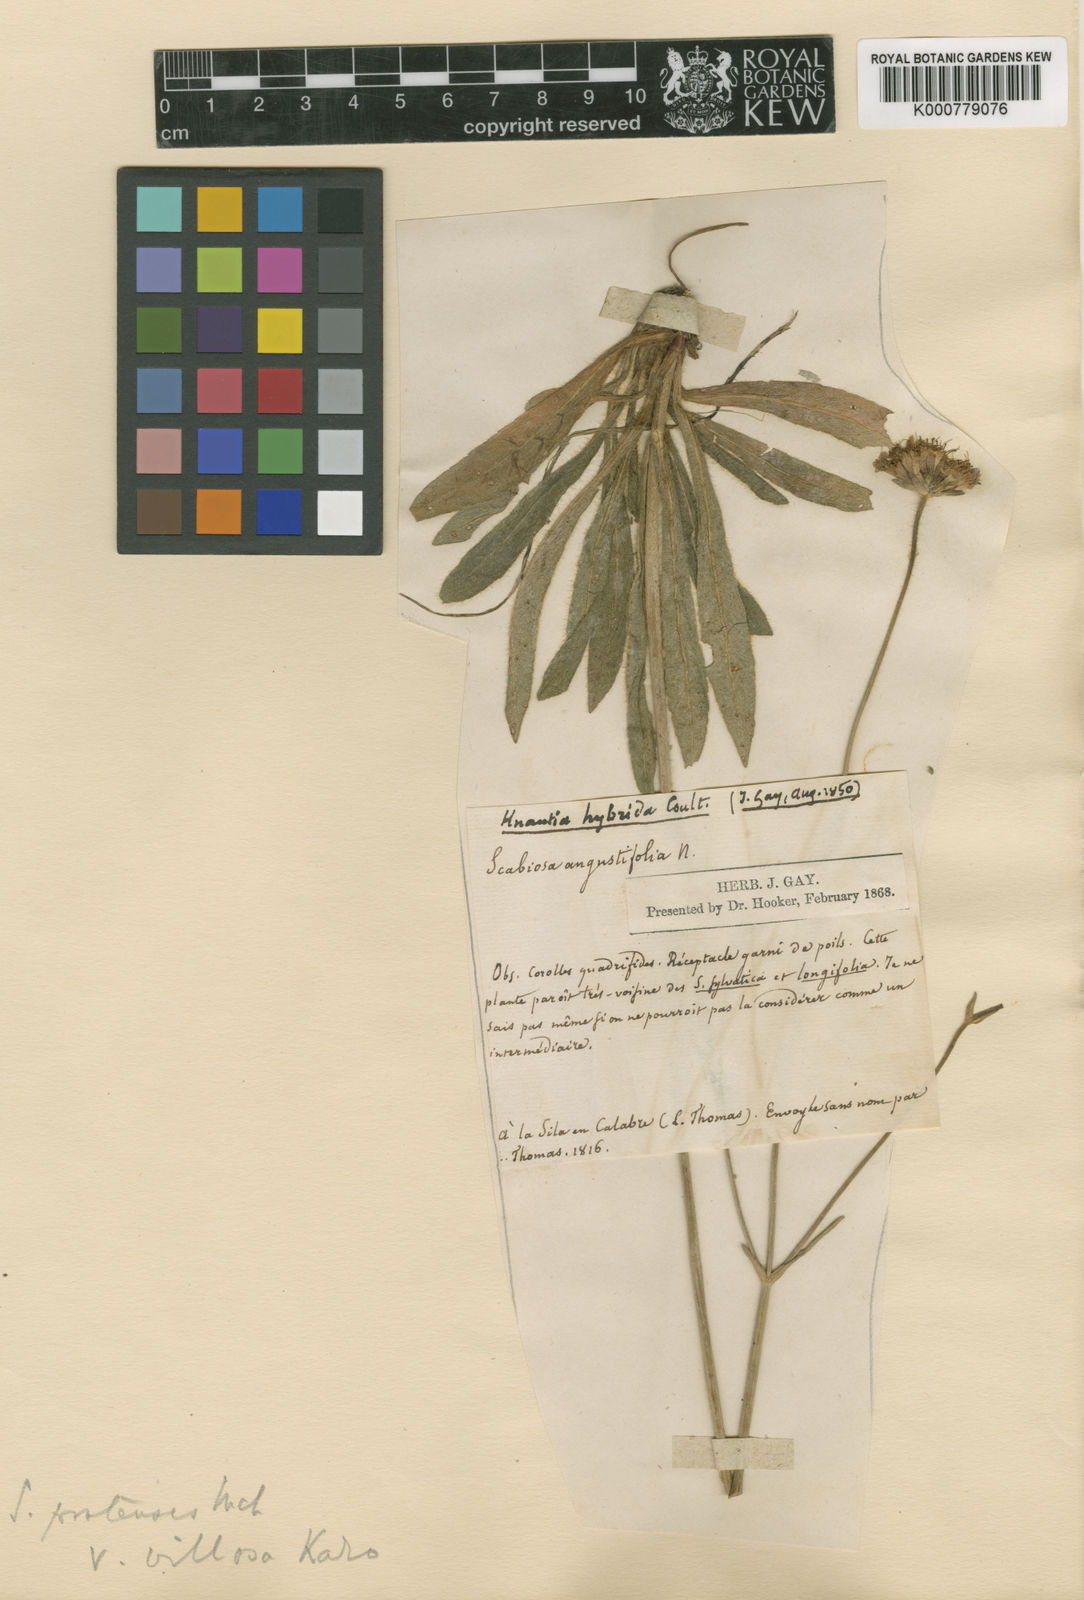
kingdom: Plantae
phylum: Tracheophyta
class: Magnoliopsida
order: Dipsacales
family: Caprifoliaceae
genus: Knautia
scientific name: Knautia arvensis
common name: Field scabiosa
